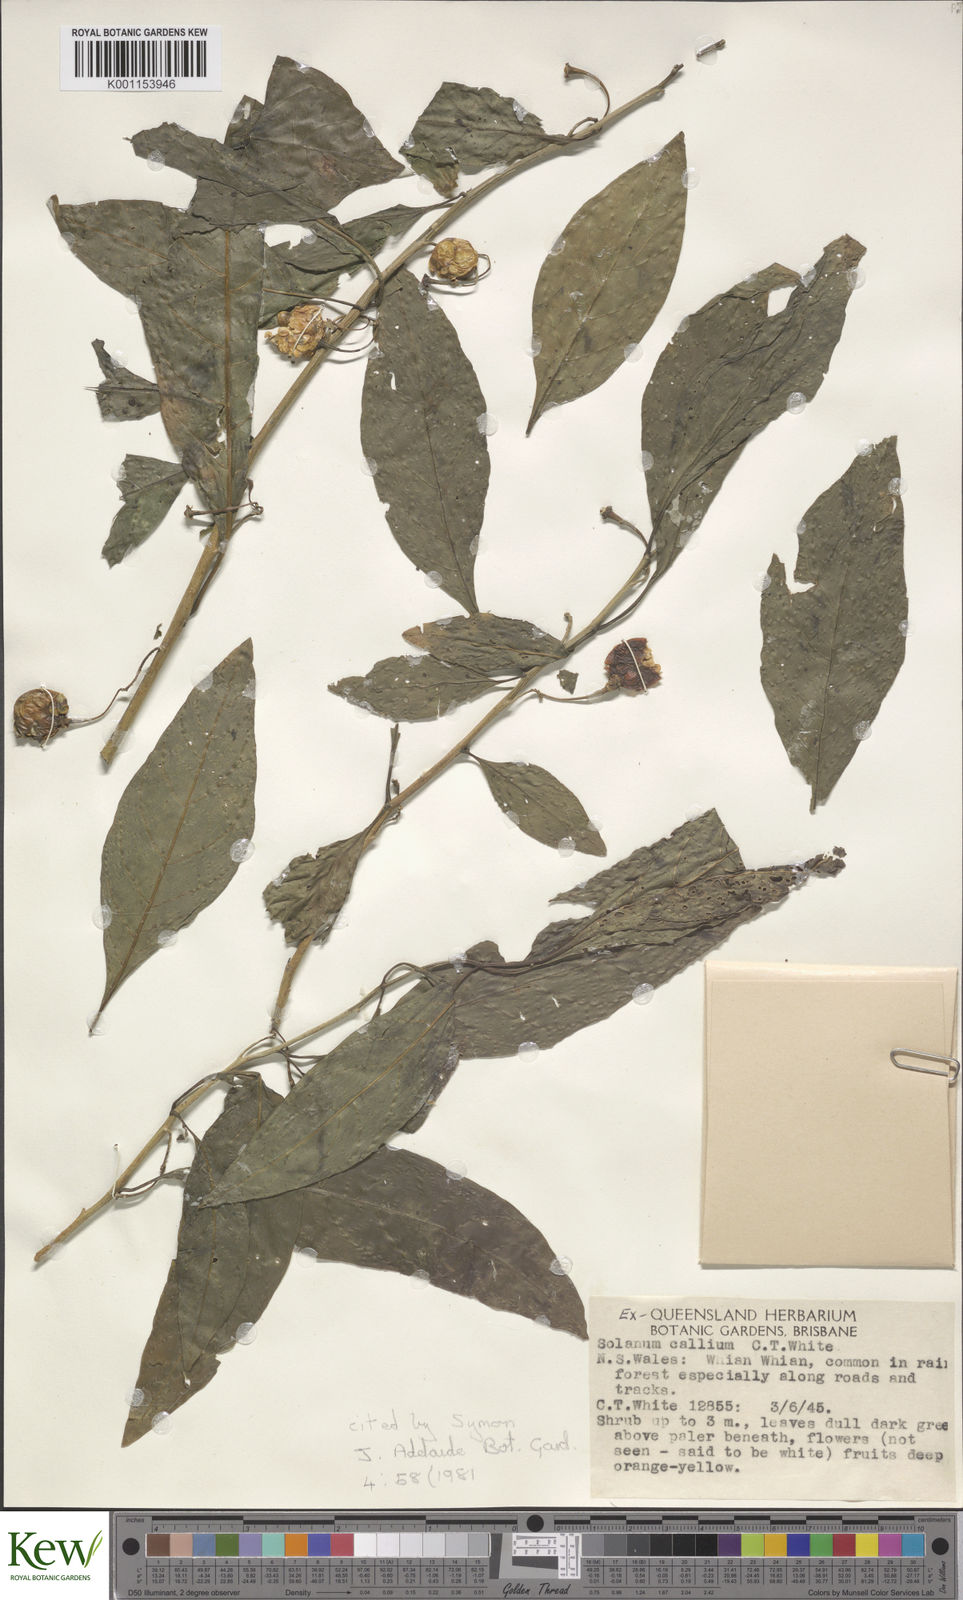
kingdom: Plantae
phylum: Tracheophyta
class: Magnoliopsida
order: Solanales
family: Solanaceae
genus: Solanum
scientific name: Solanum spirale
